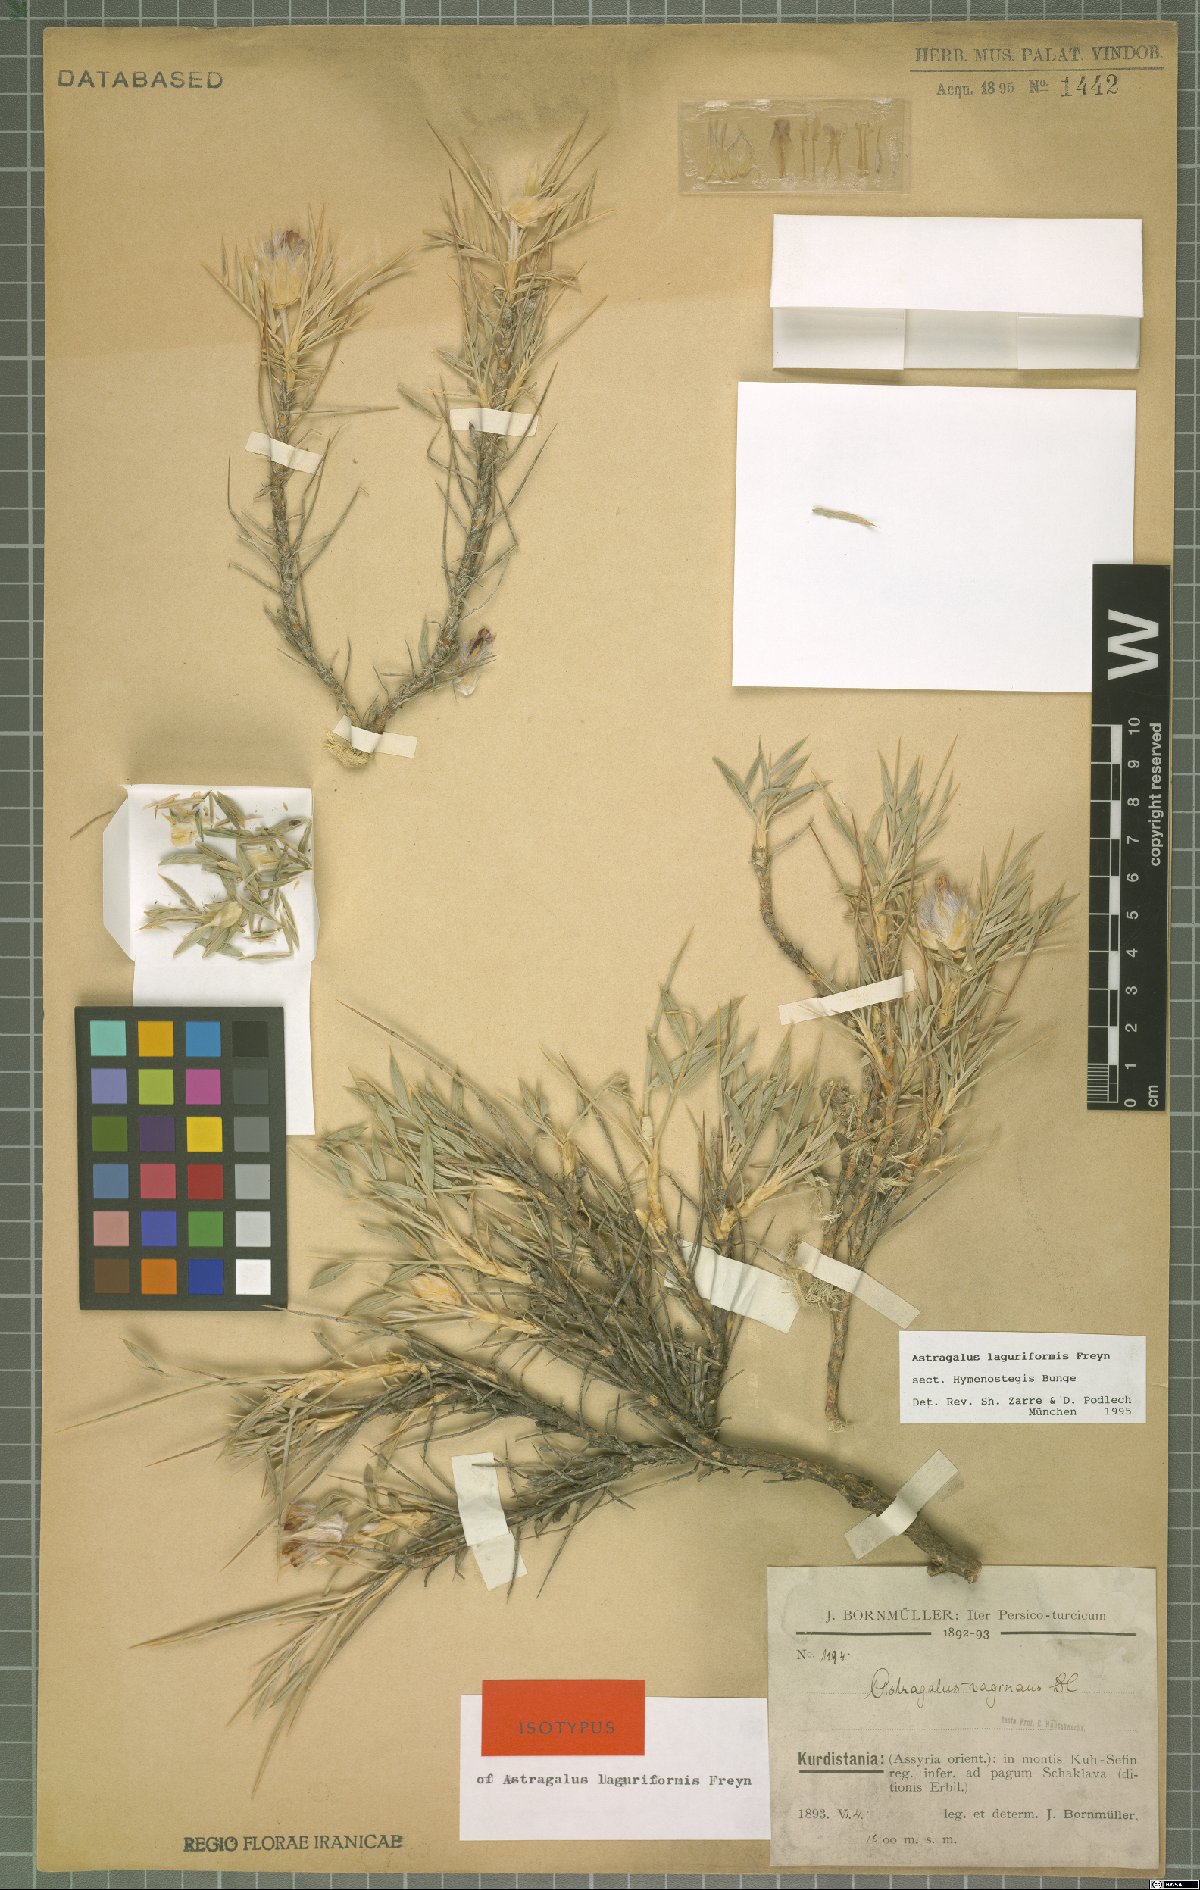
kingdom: Plantae
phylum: Tracheophyta
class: Magnoliopsida
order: Fabales
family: Fabaceae
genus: Astragalus
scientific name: Astragalus laguriformis
